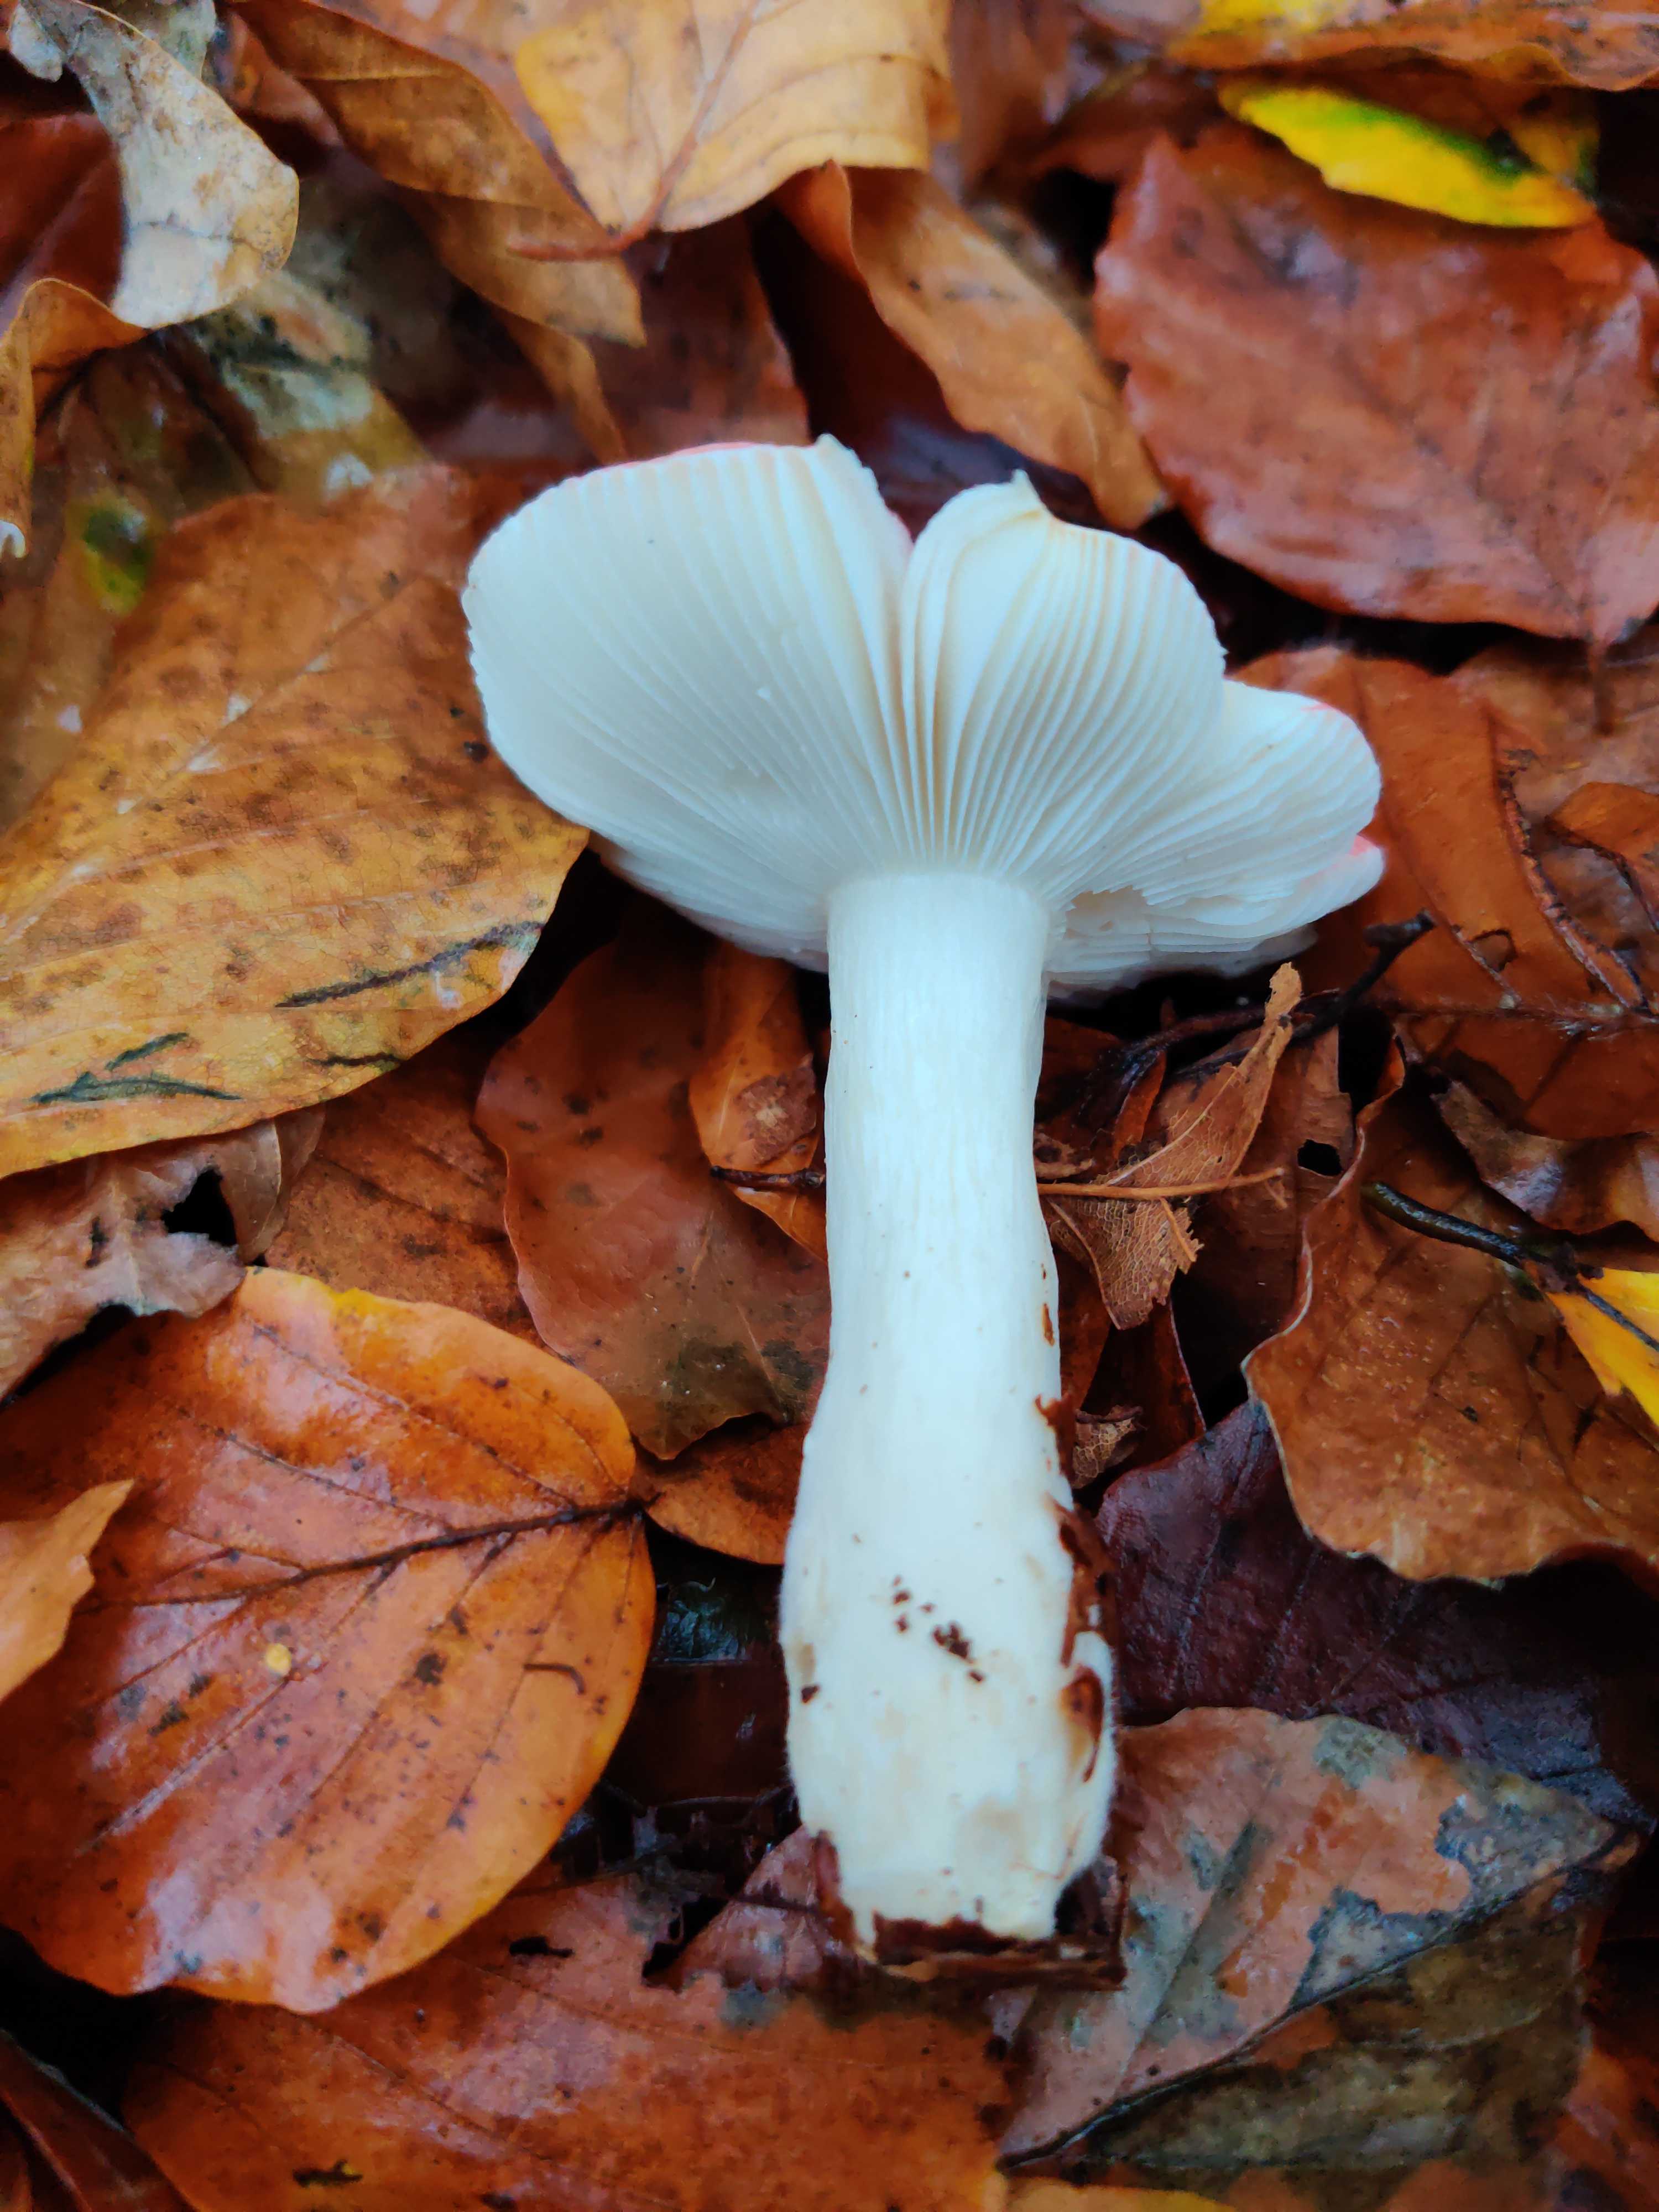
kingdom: Fungi
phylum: Basidiomycota
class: Agaricomycetes
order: Russulales
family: Russulaceae
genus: Russula
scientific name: Russula nobilis
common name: lille gift-skørhat
